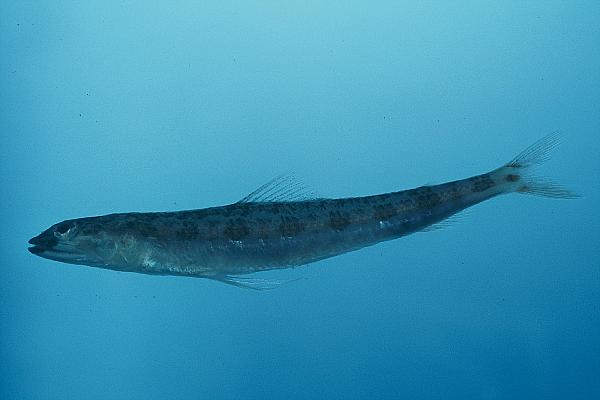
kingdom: Animalia
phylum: Chordata
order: Aulopiformes
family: Synodontidae
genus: Synodus
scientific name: Synodus
